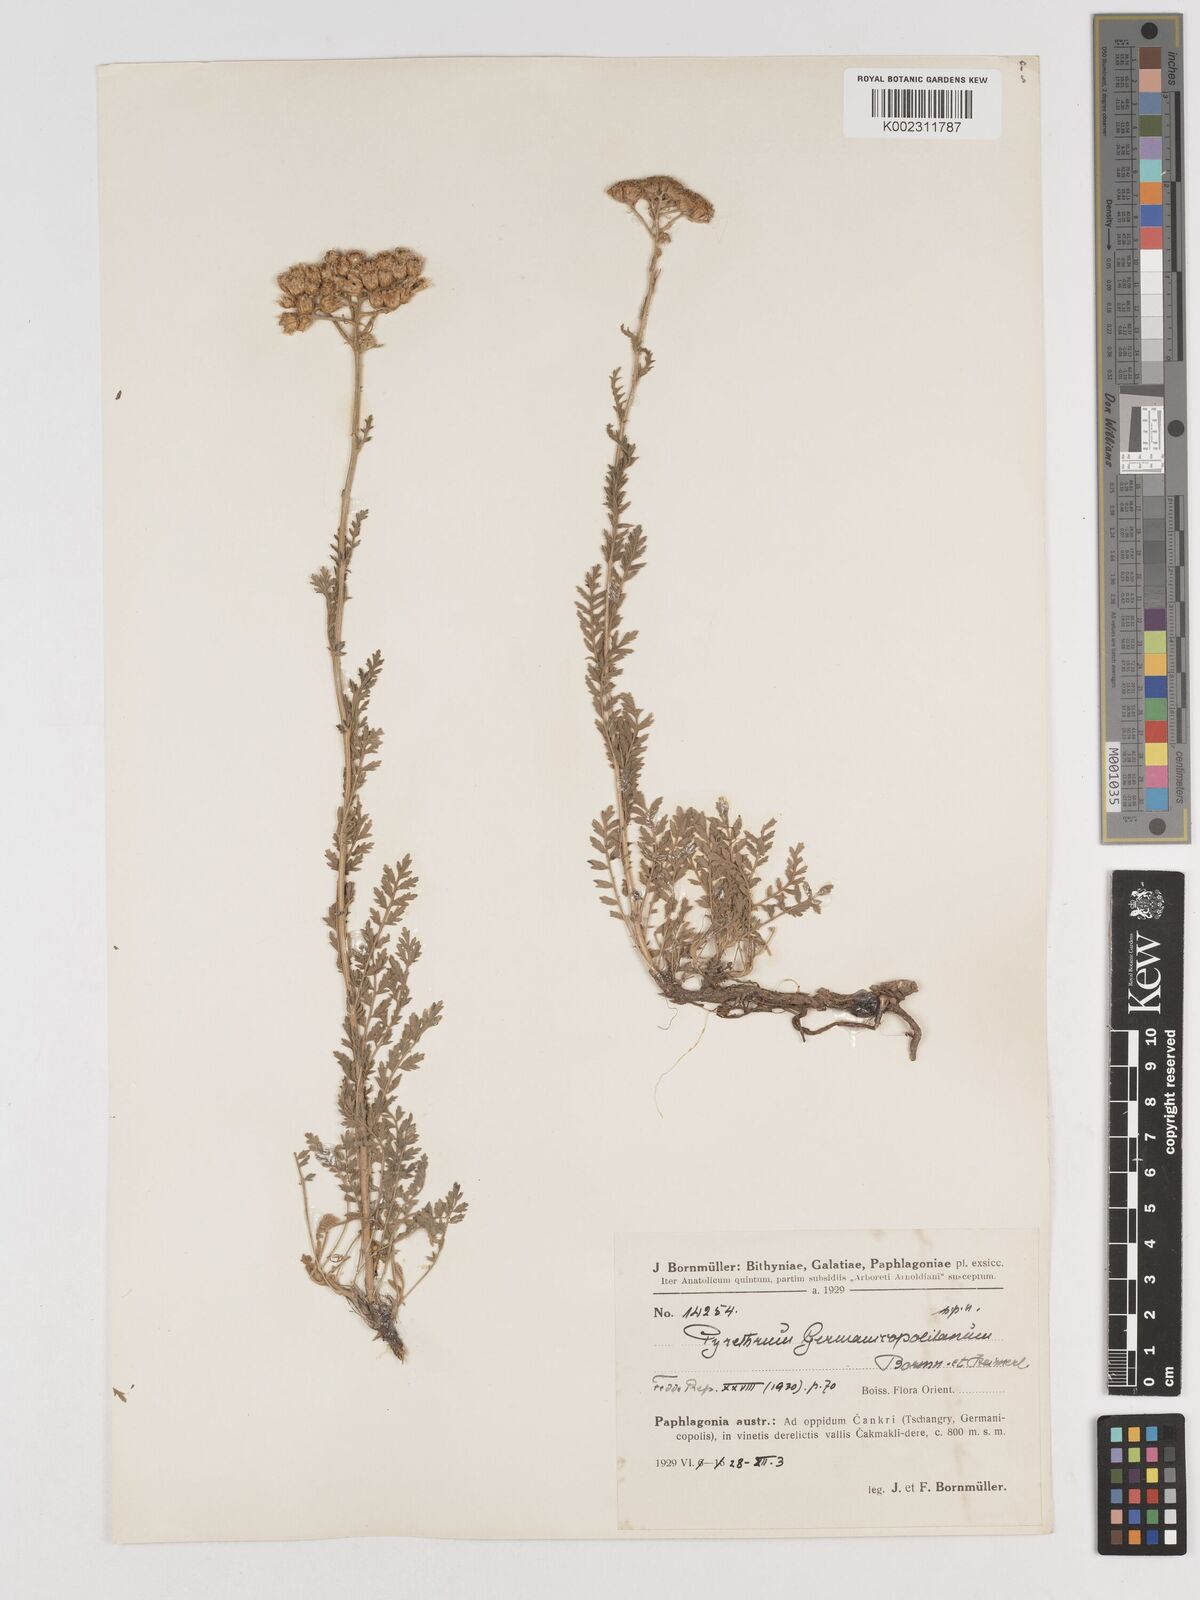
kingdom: Plantae
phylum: Tracheophyta
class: Magnoliopsida
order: Asterales
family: Asteraceae
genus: Tanacetum
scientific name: Tanacetum germanicopolitanum
